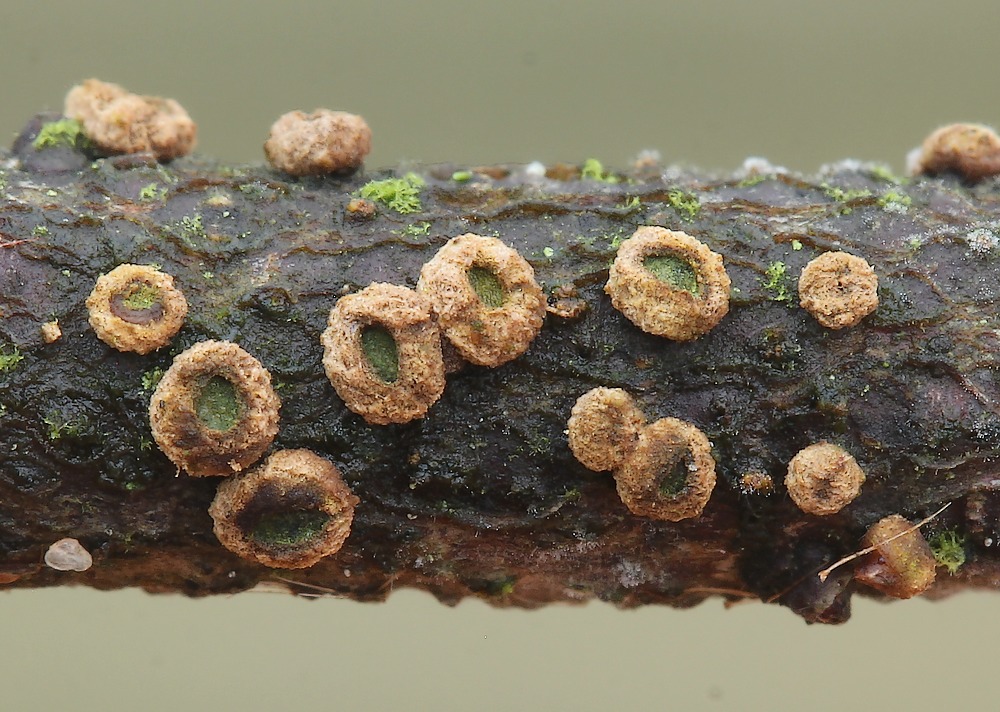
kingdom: Fungi
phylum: Ascomycota
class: Leotiomycetes
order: Helotiales
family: Cenangiaceae
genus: Velutarina
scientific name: Velutarina rufo-olivacea
